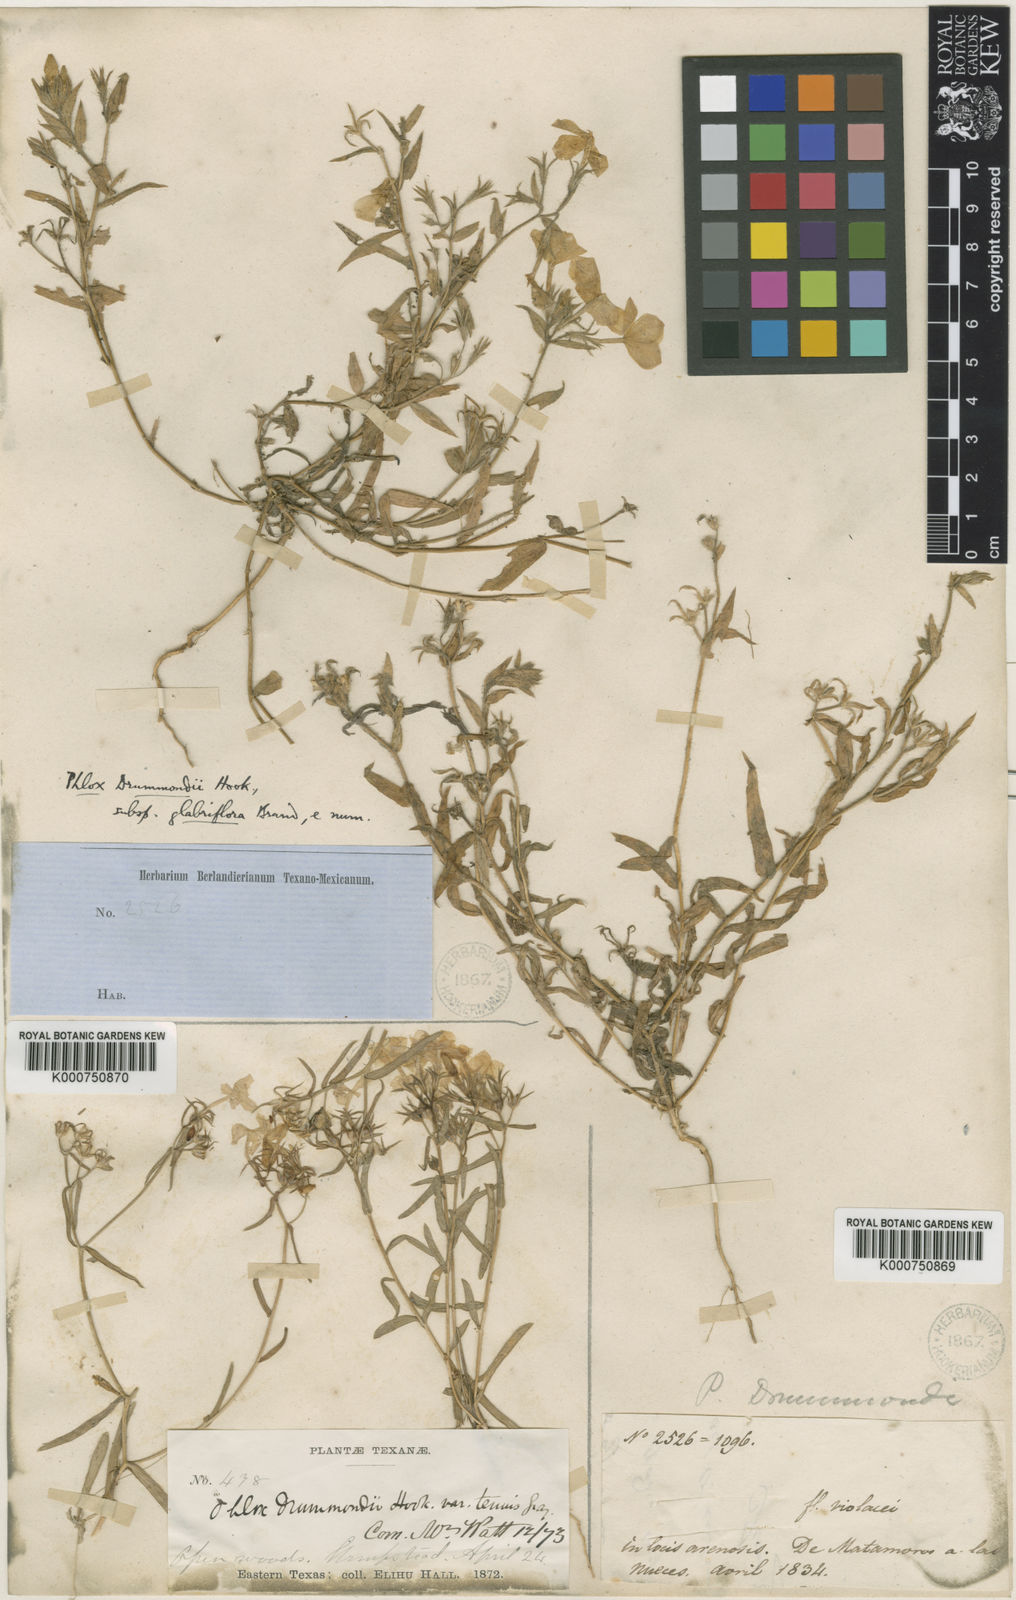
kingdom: Plantae
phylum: Tracheophyta
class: Magnoliopsida
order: Ericales
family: Polemoniaceae
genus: Phlox
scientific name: Phlox drummondii
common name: Drummond's phlox
